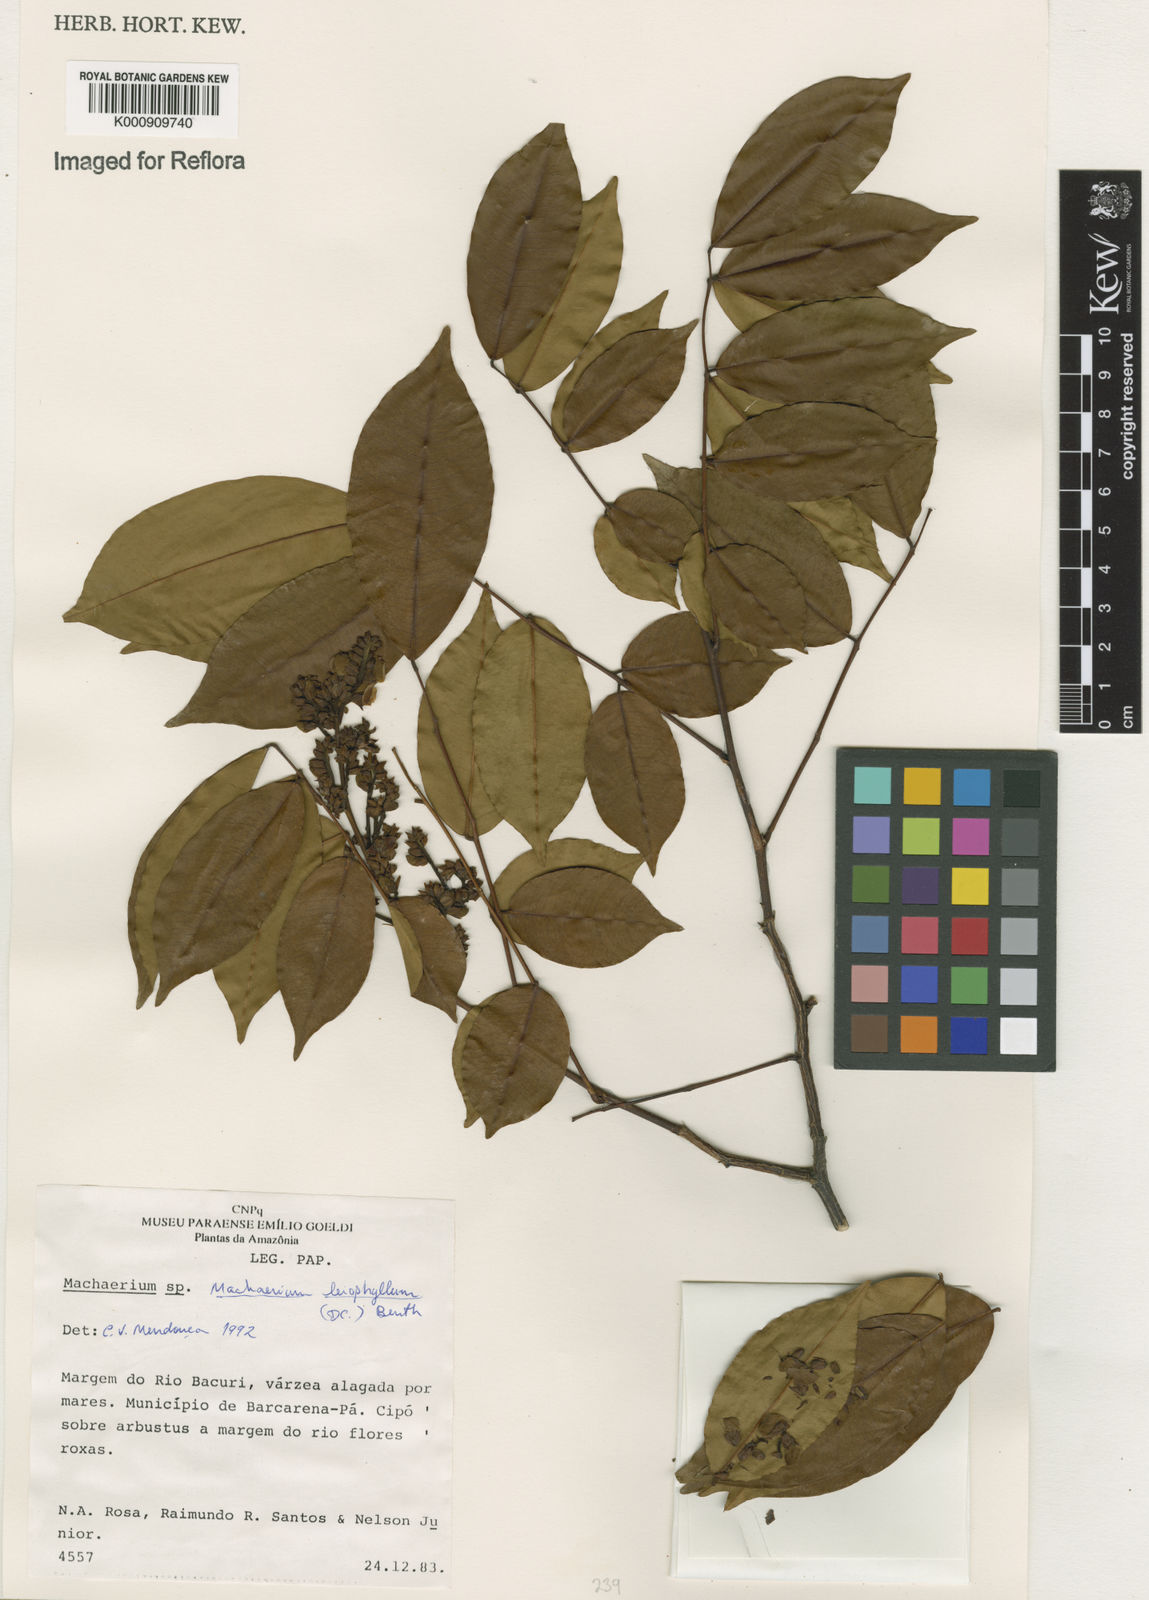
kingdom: Plantae
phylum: Tracheophyta
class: Magnoliopsida
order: Fabales
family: Fabaceae
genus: Machaerium
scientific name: Machaerium leiophyllum
